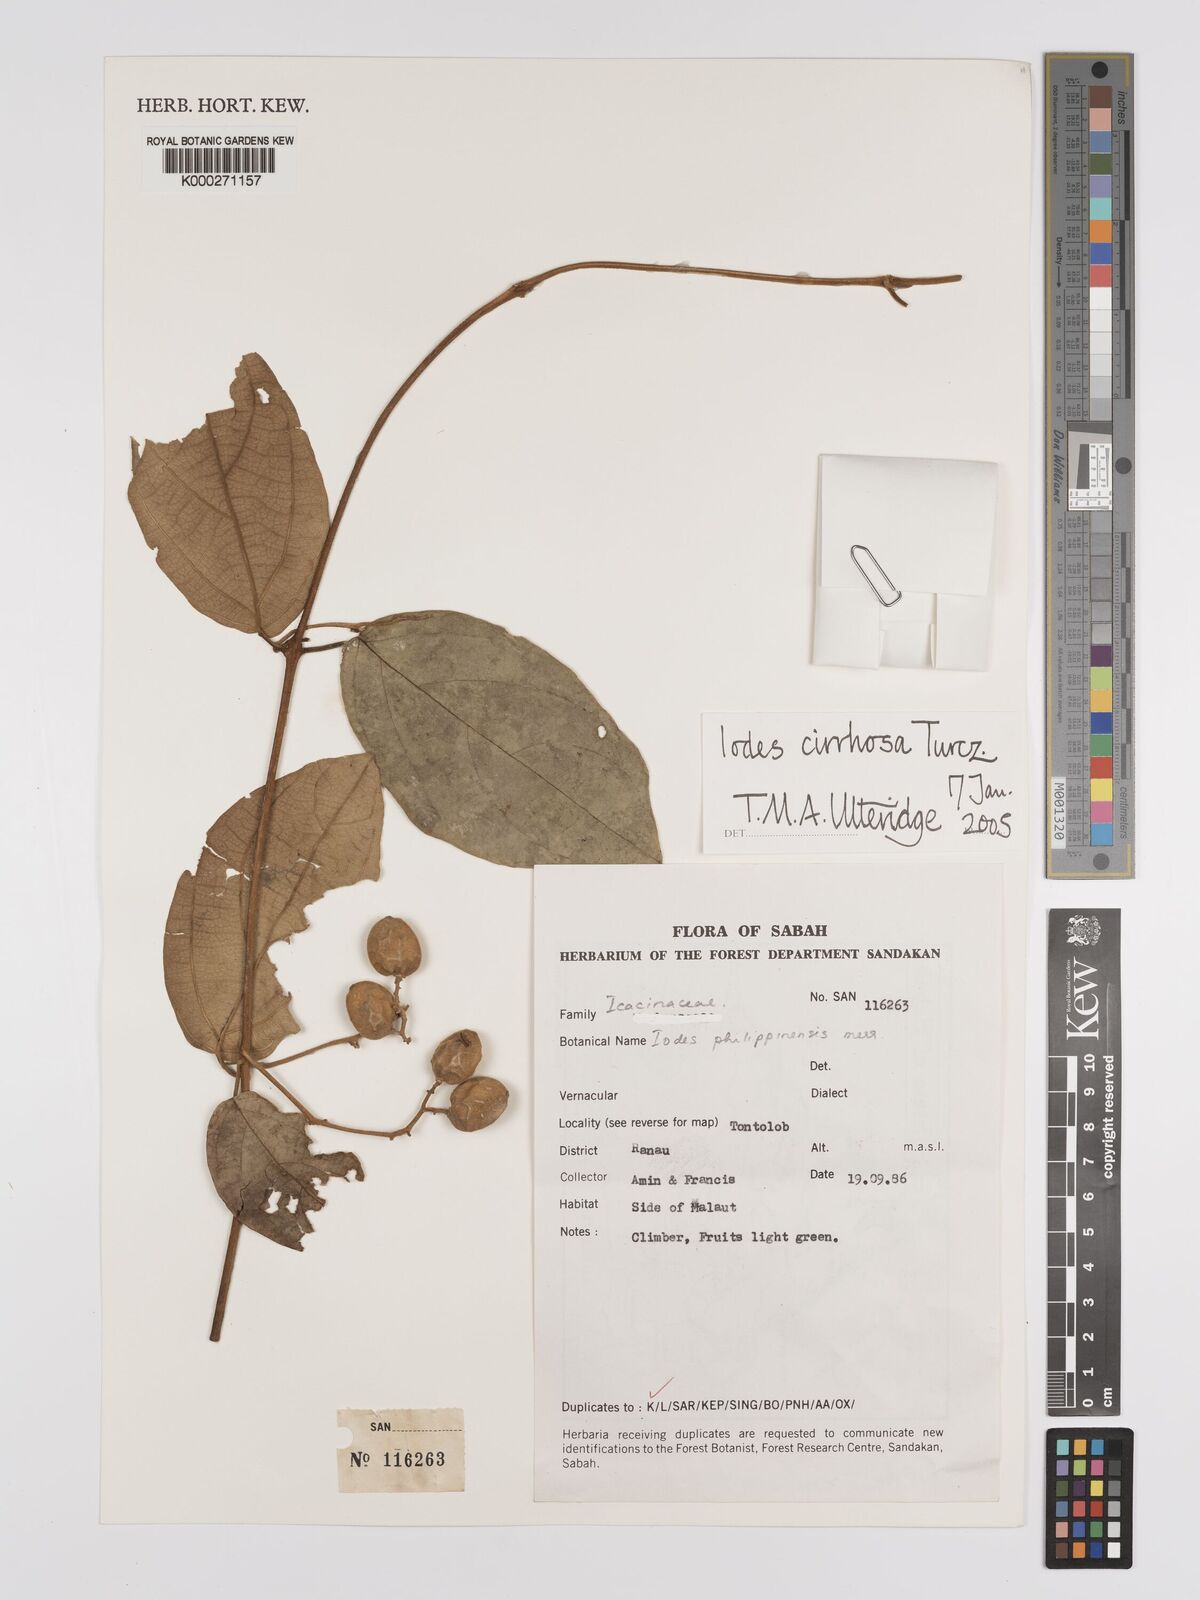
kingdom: Plantae
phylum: Tracheophyta
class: Magnoliopsida
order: Icacinales
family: Icacinaceae
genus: Iodes
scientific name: Iodes cirrhosa
